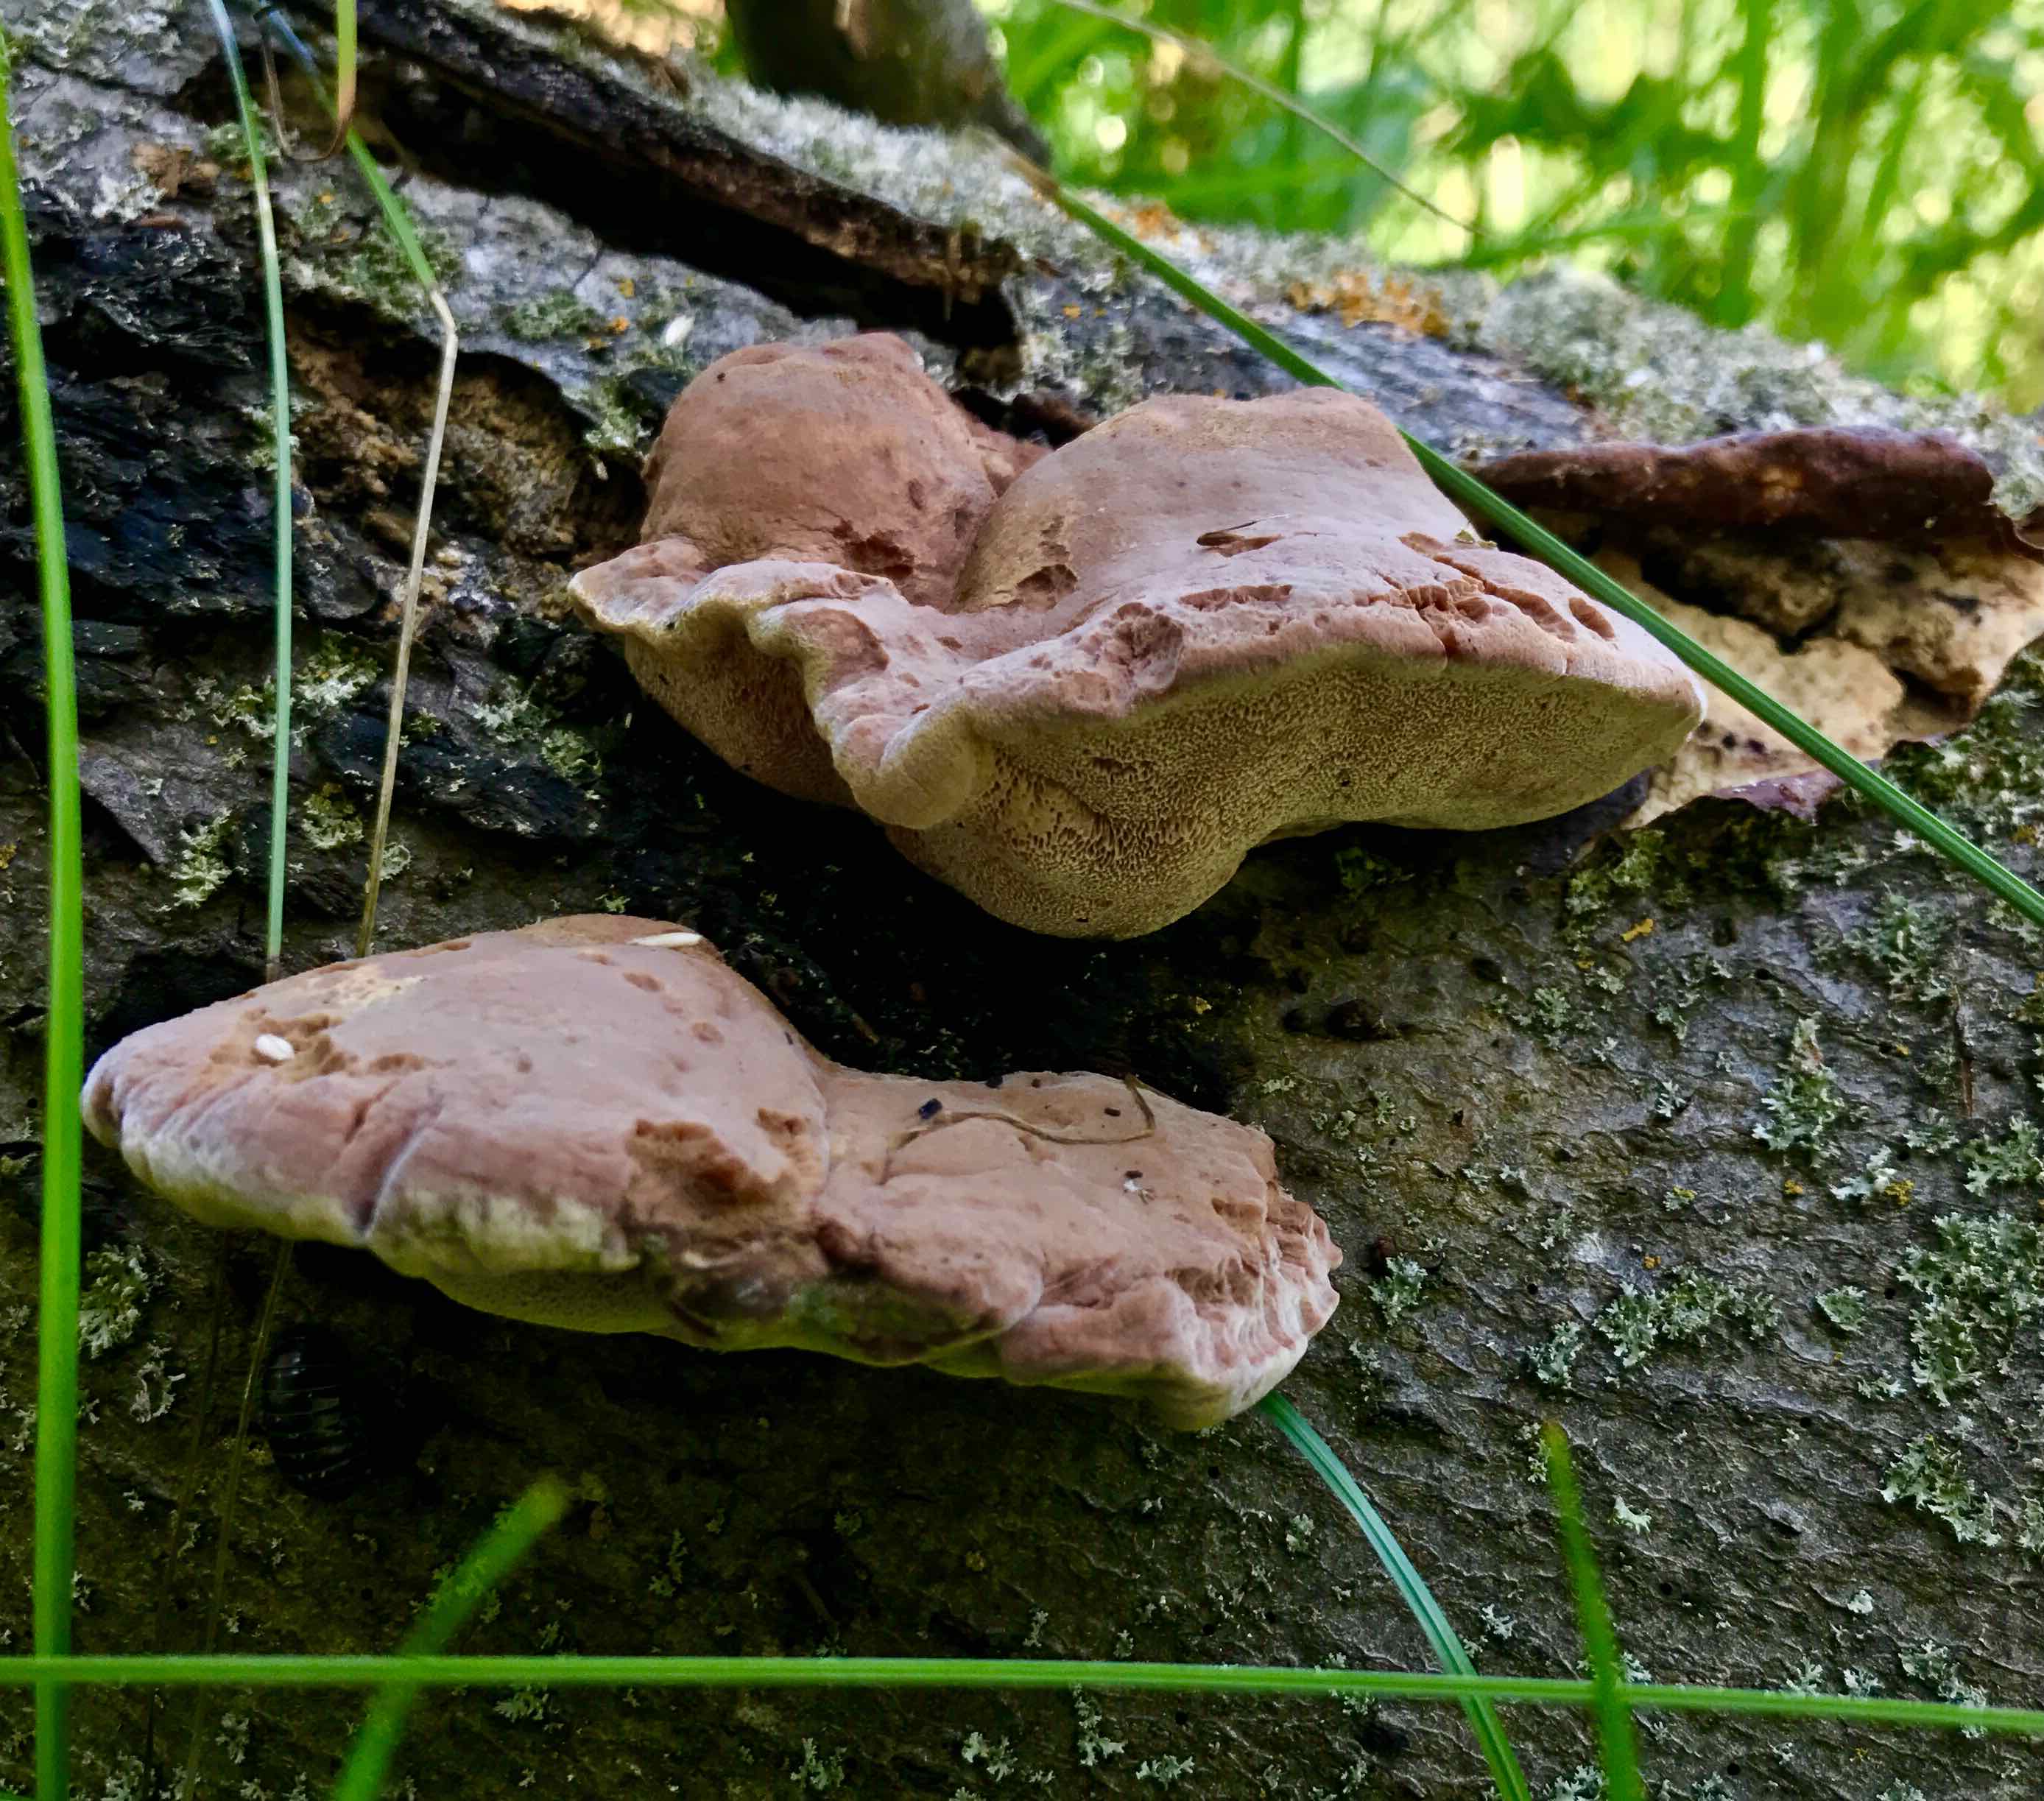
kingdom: Fungi
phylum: Basidiomycota
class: Agaricomycetes
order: Polyporales
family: Phanerochaetaceae
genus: Hapalopilus
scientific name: Hapalopilus rutilans
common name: rødlig okkerporesvamp
